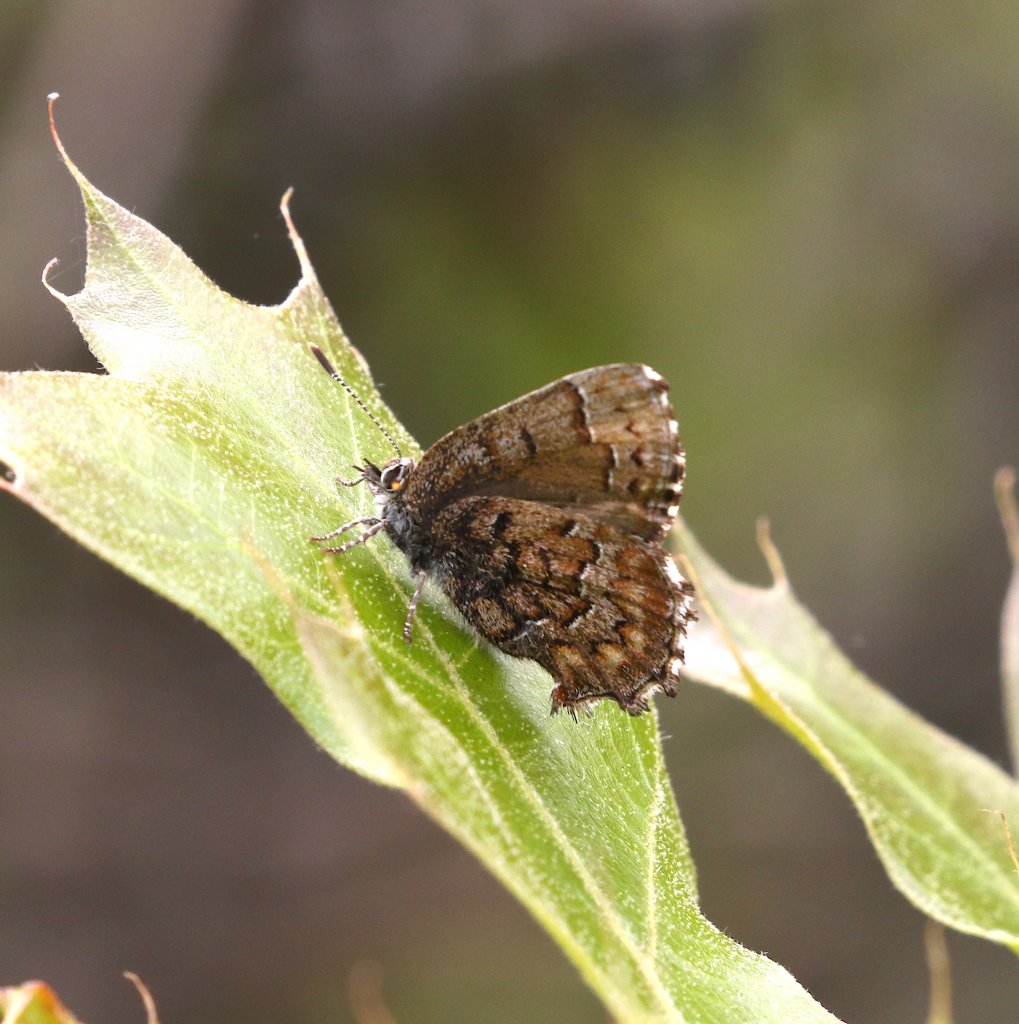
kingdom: Animalia
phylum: Arthropoda
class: Insecta
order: Lepidoptera
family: Lycaenidae
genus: Incisalia
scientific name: Incisalia niphon
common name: Eastern Pine Elfin
